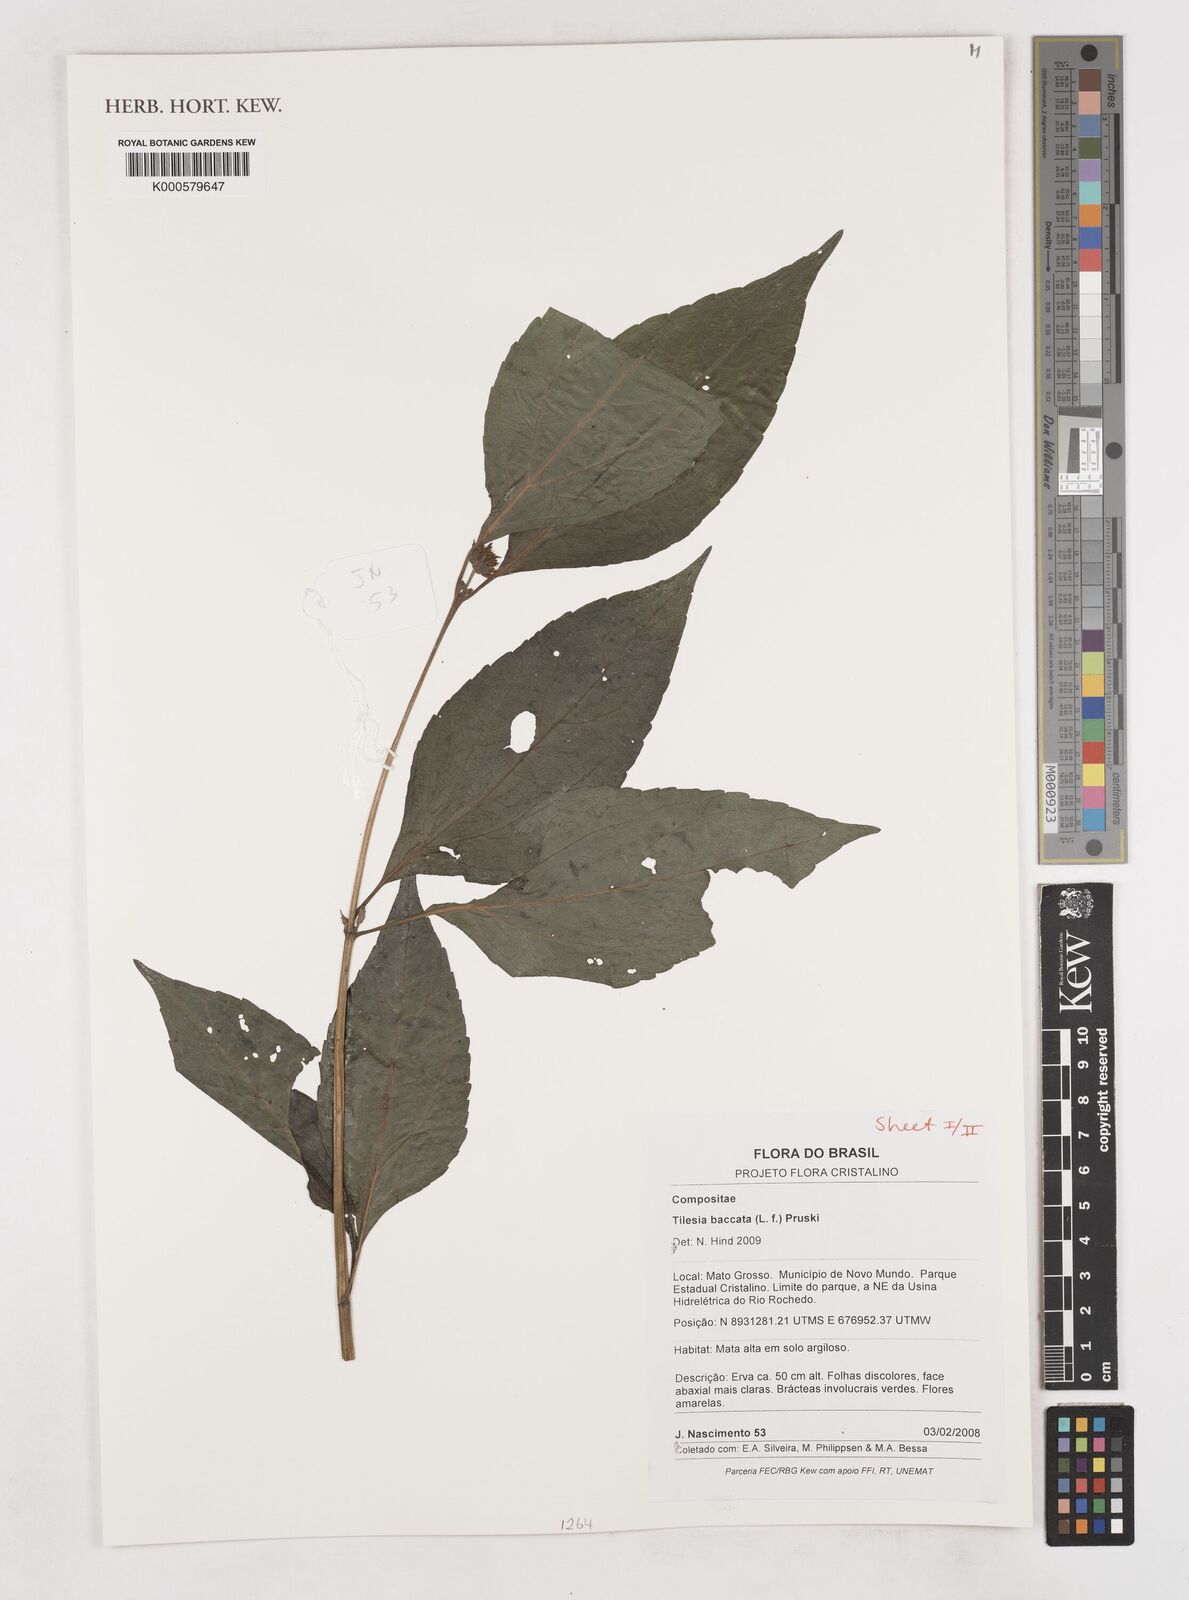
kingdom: Plantae
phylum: Tracheophyta
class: Magnoliopsida
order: Asterales
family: Asteraceae
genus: Tilesia
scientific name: Tilesia baccata
